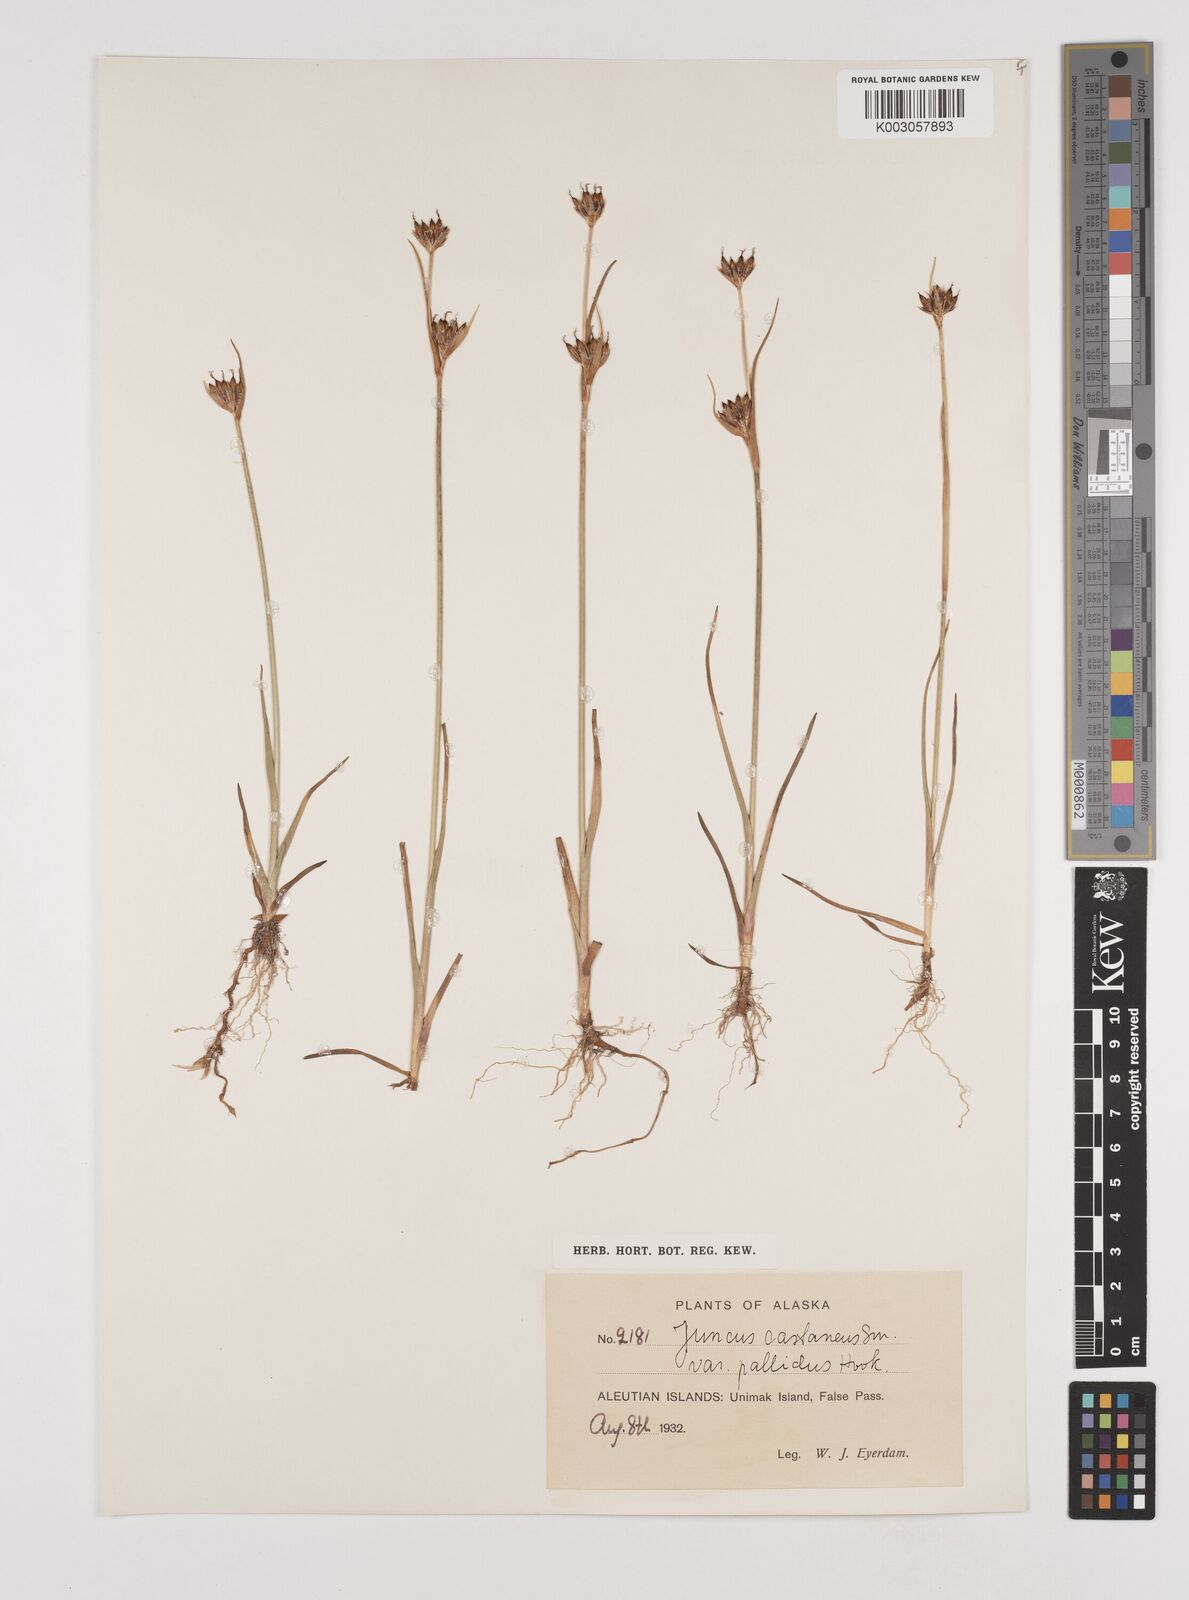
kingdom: Plantae
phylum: Tracheophyta
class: Liliopsida
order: Poales
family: Juncaceae
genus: Juncus
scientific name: Juncus castaneus
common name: Chestnut rush
